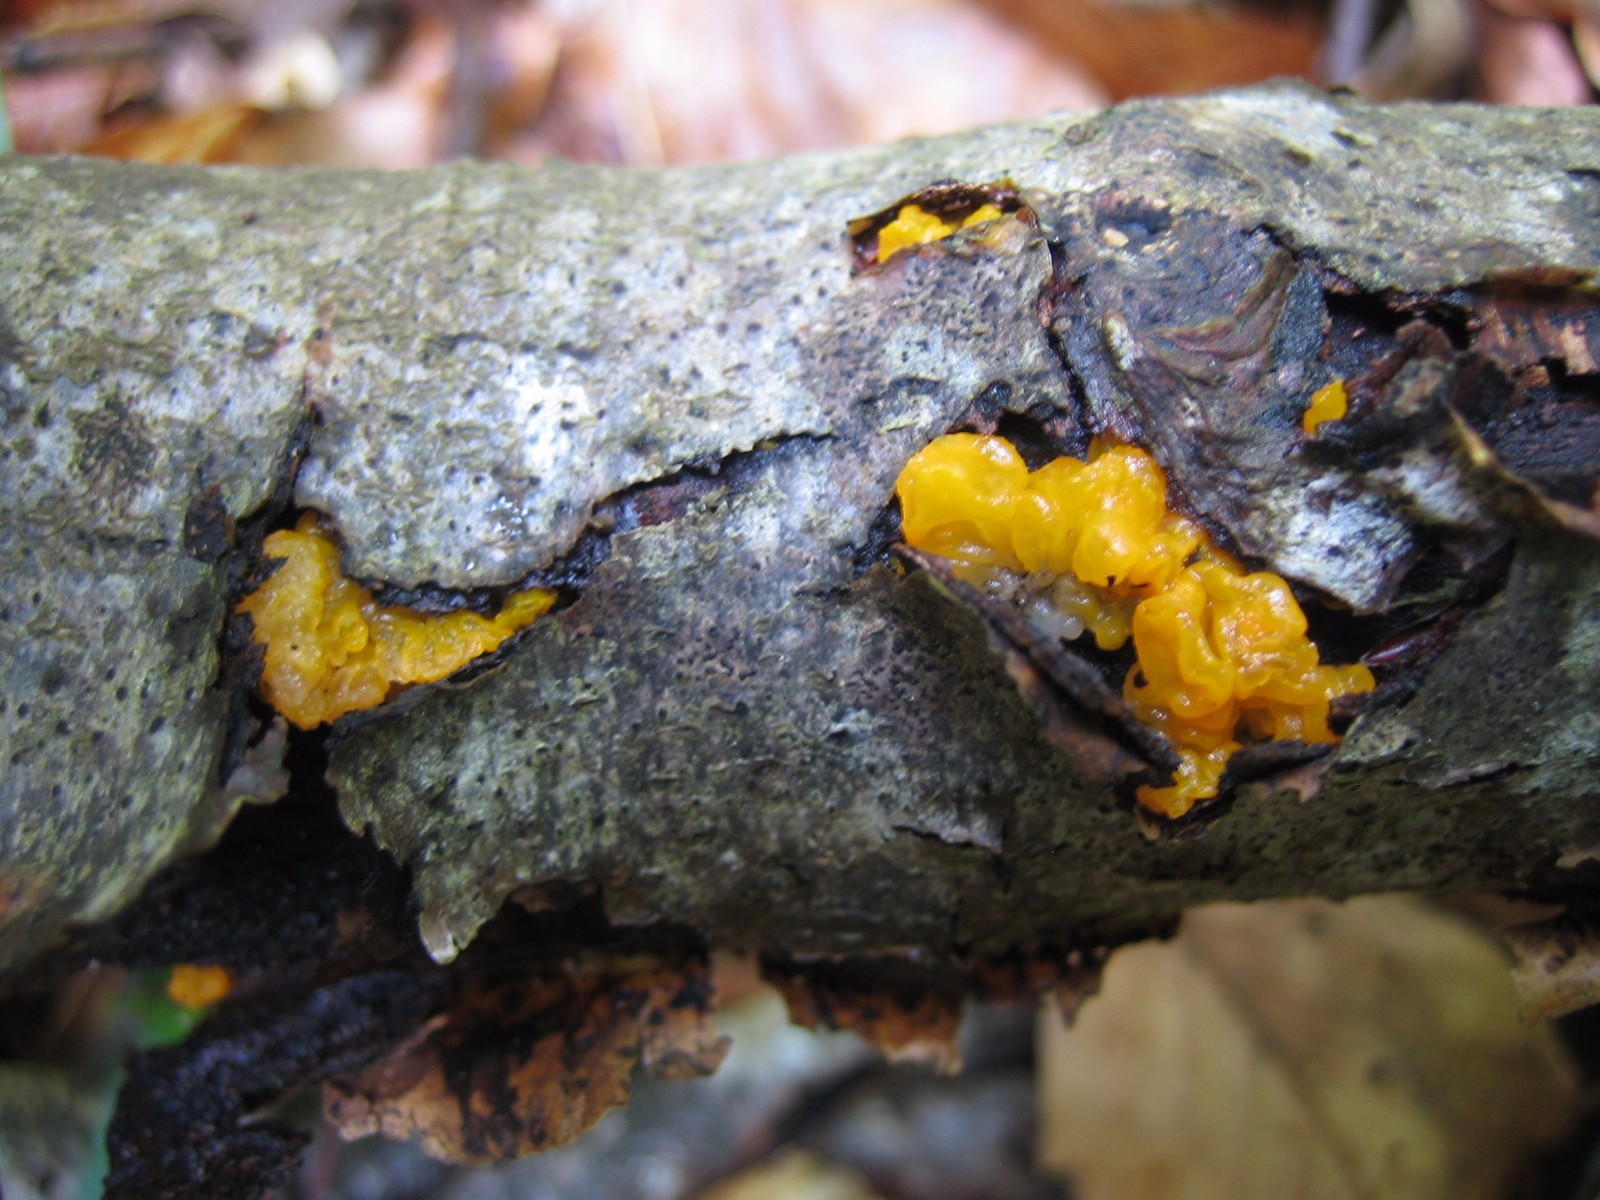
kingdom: Fungi
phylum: Basidiomycota
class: Tremellomycetes
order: Tremellales
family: Tremellaceae
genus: Tremella
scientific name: Tremella mesenterica
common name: gul bævresvamp
